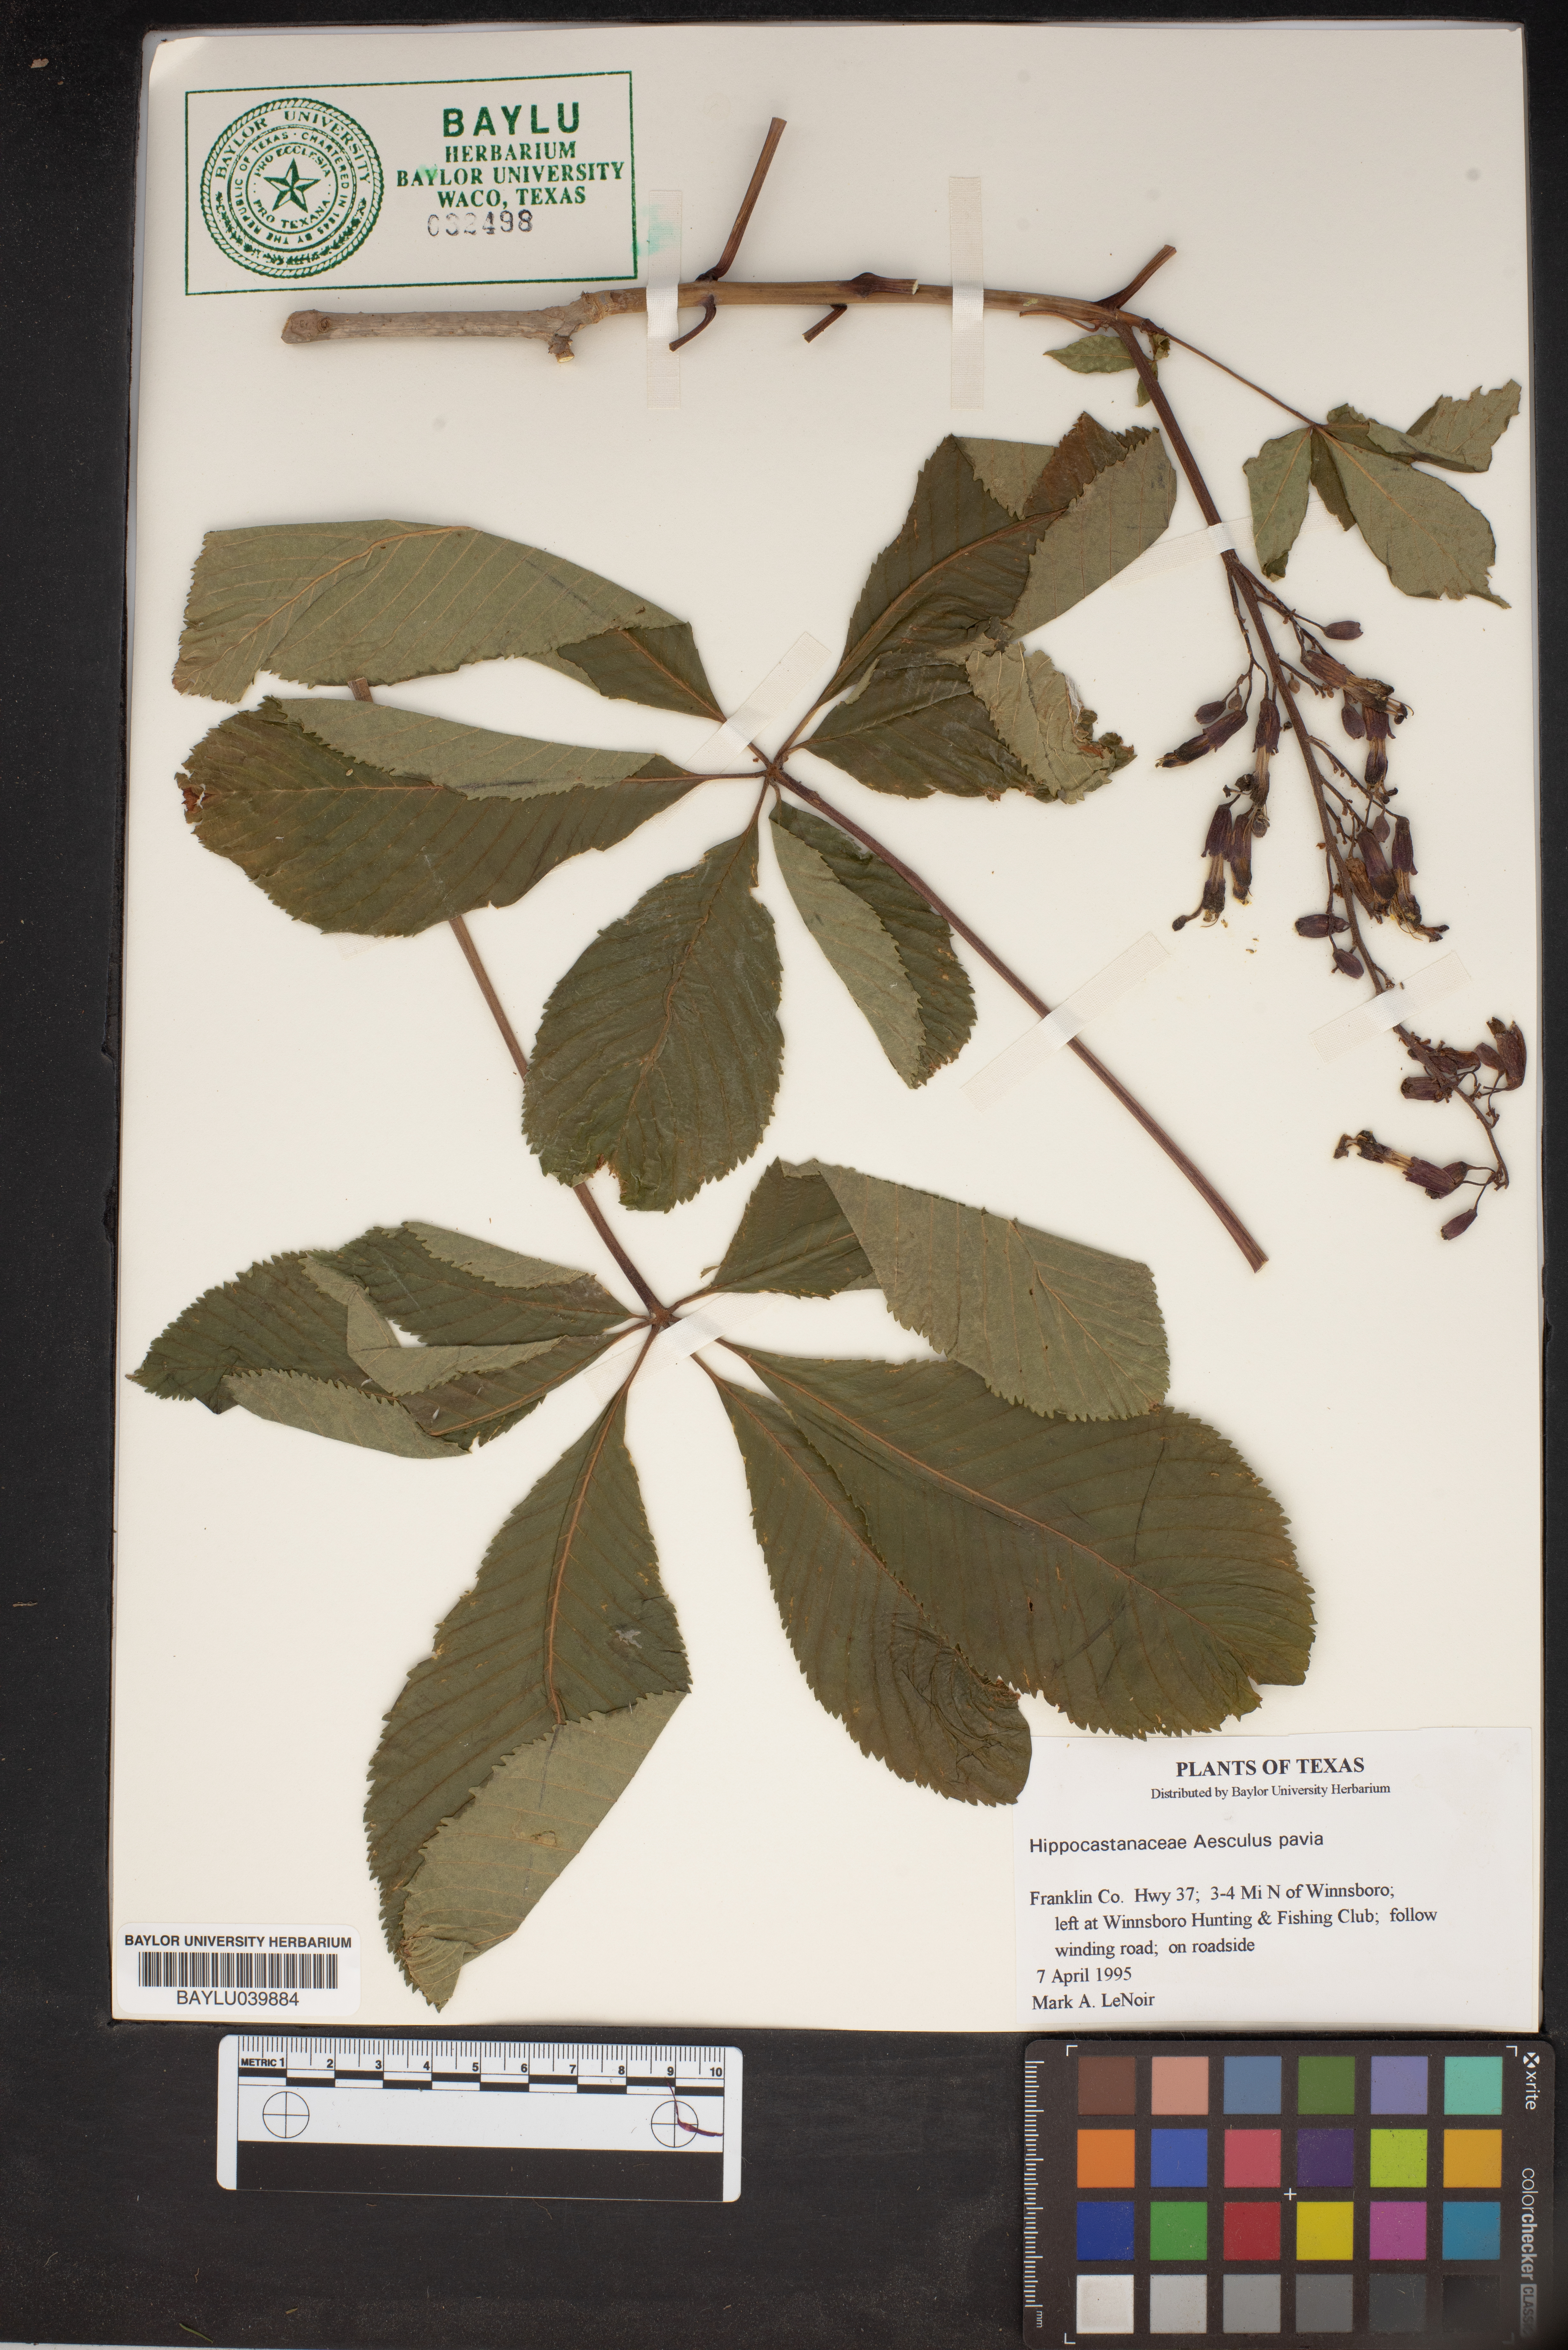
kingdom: Plantae
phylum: Tracheophyta
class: Magnoliopsida
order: Sapindales
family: Sapindaceae
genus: Aesculus
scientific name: Aesculus pavia
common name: Red buckeye
